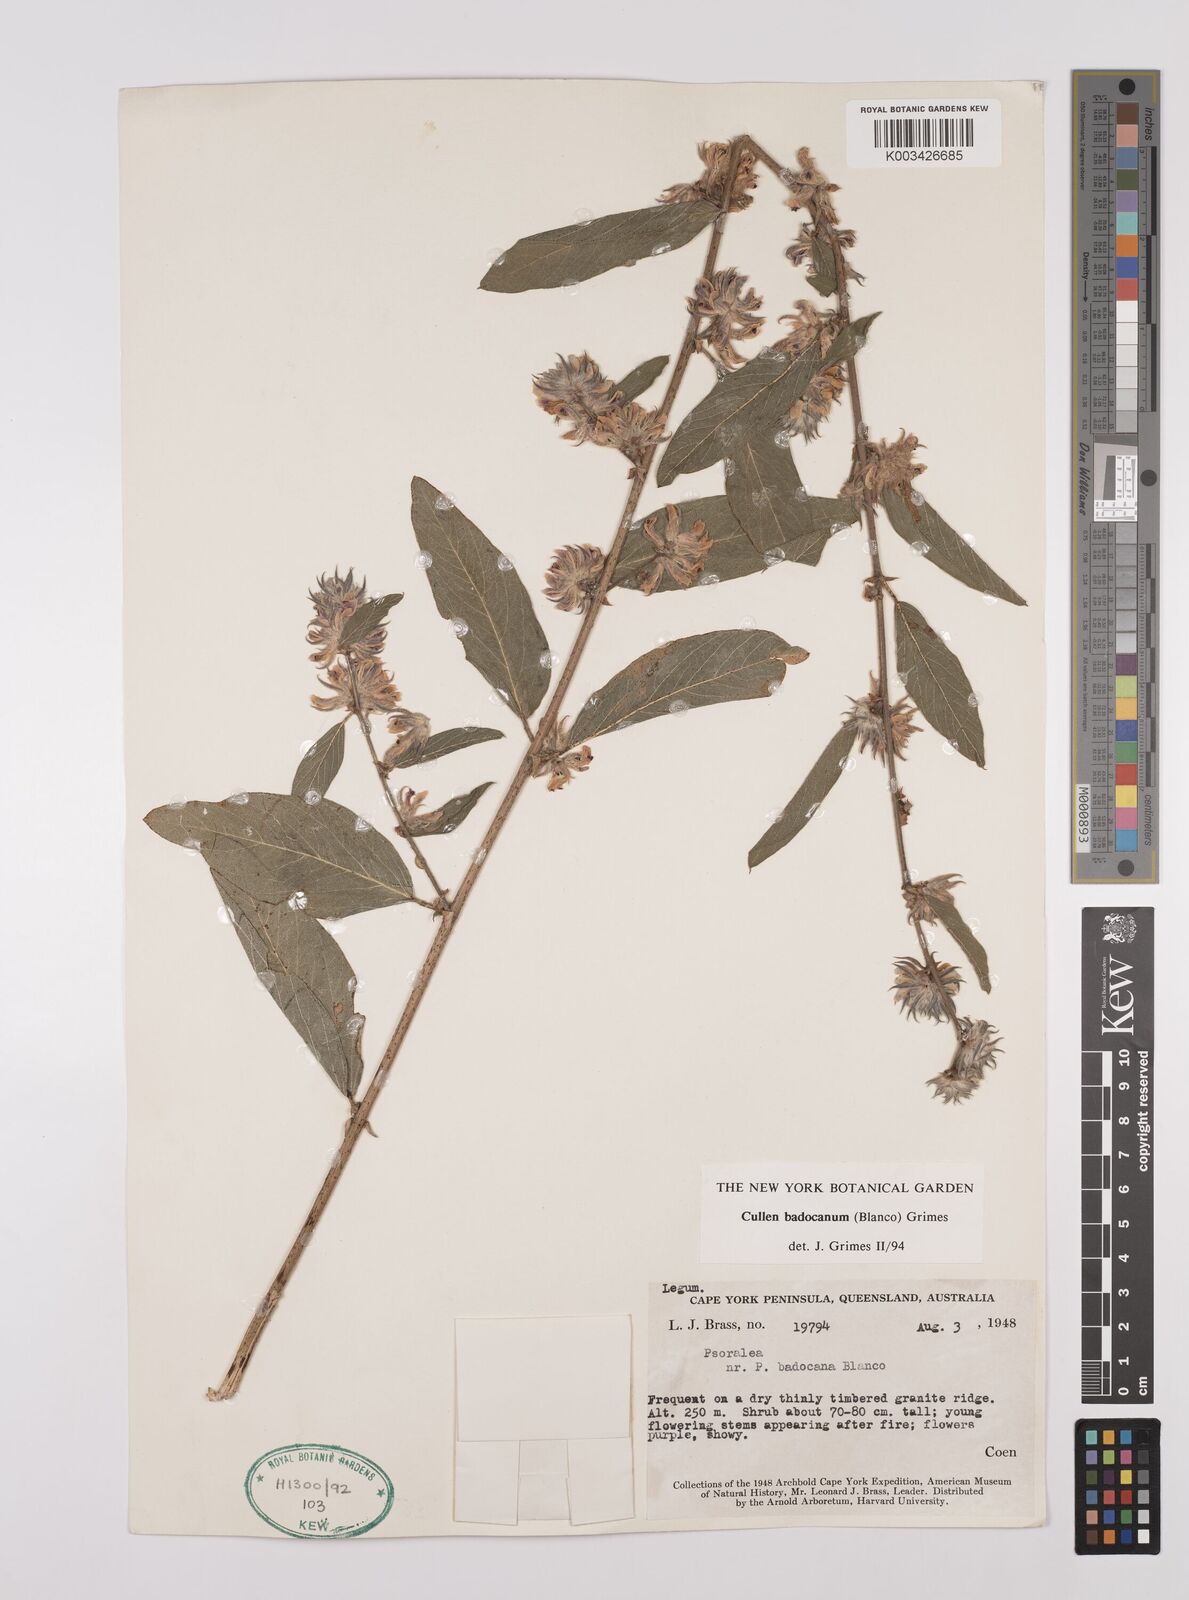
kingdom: Plantae
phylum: Tracheophyta
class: Magnoliopsida
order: Fabales
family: Fabaceae
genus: Cullen
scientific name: Cullen badocanum
